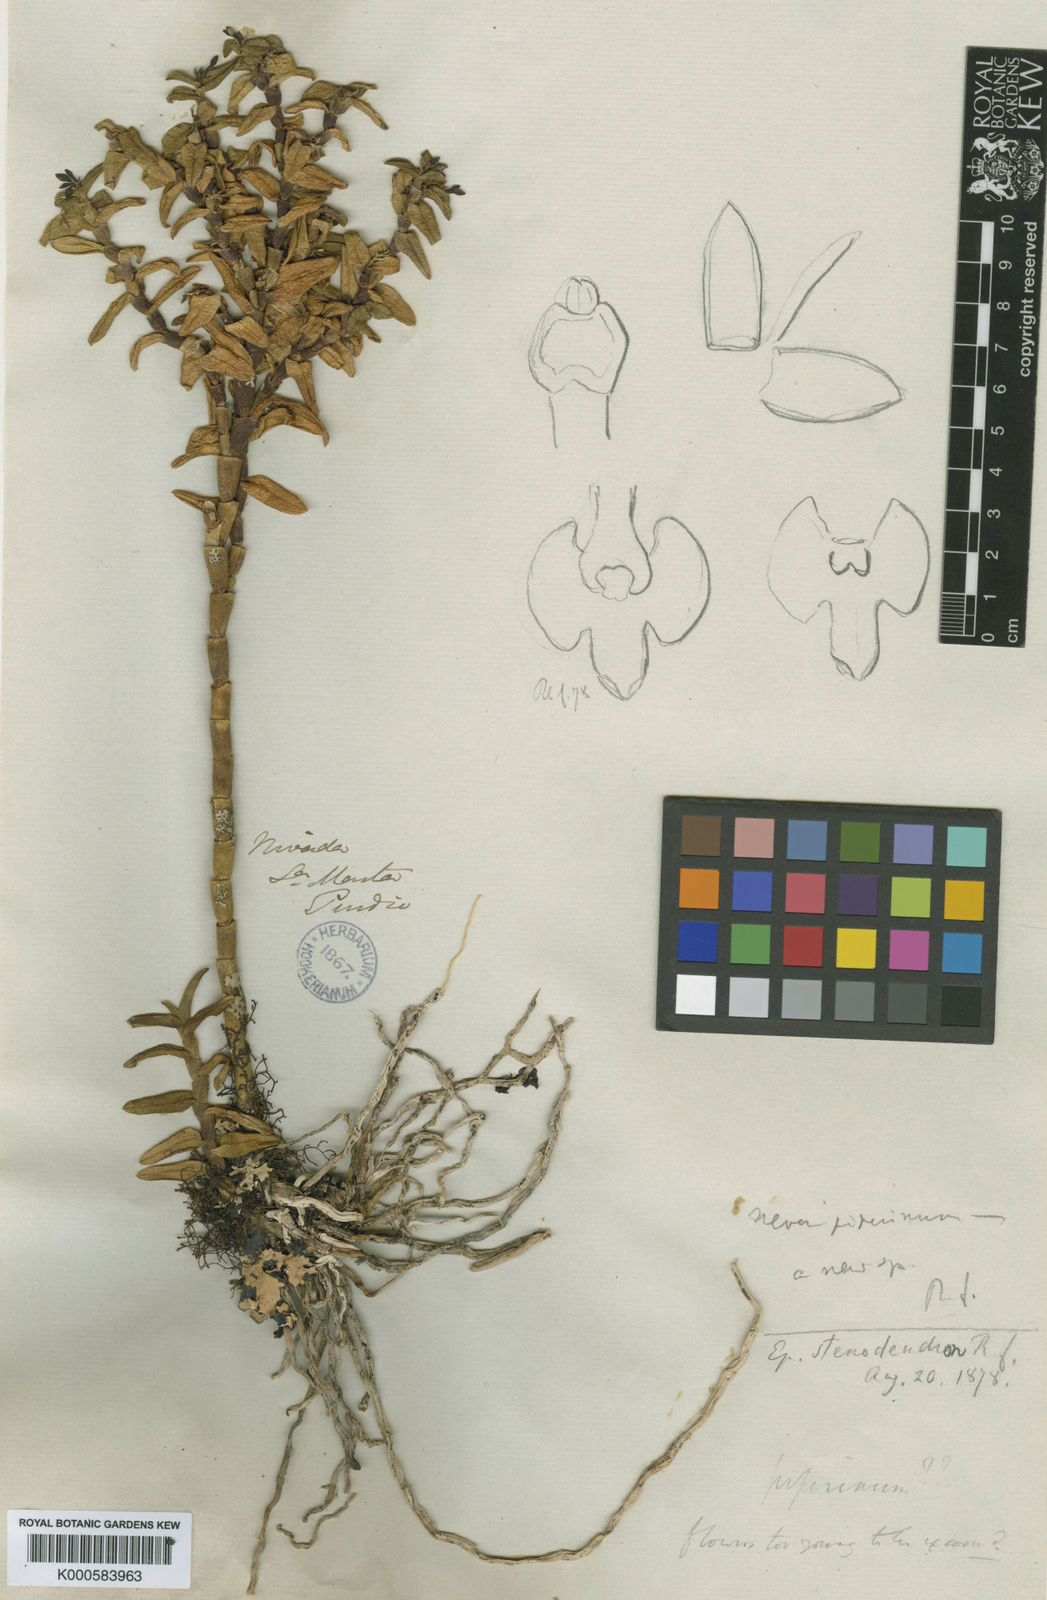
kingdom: Plantae
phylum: Tracheophyta
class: Liliopsida
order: Asparagales
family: Orchidaceae
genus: Epidendrum
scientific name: Epidendrum
